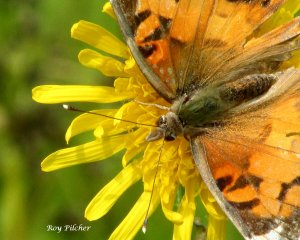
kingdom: Animalia
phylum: Arthropoda
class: Insecta
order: Lepidoptera
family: Nymphalidae
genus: Vanessa
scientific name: Vanessa virginiensis
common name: American Lady
